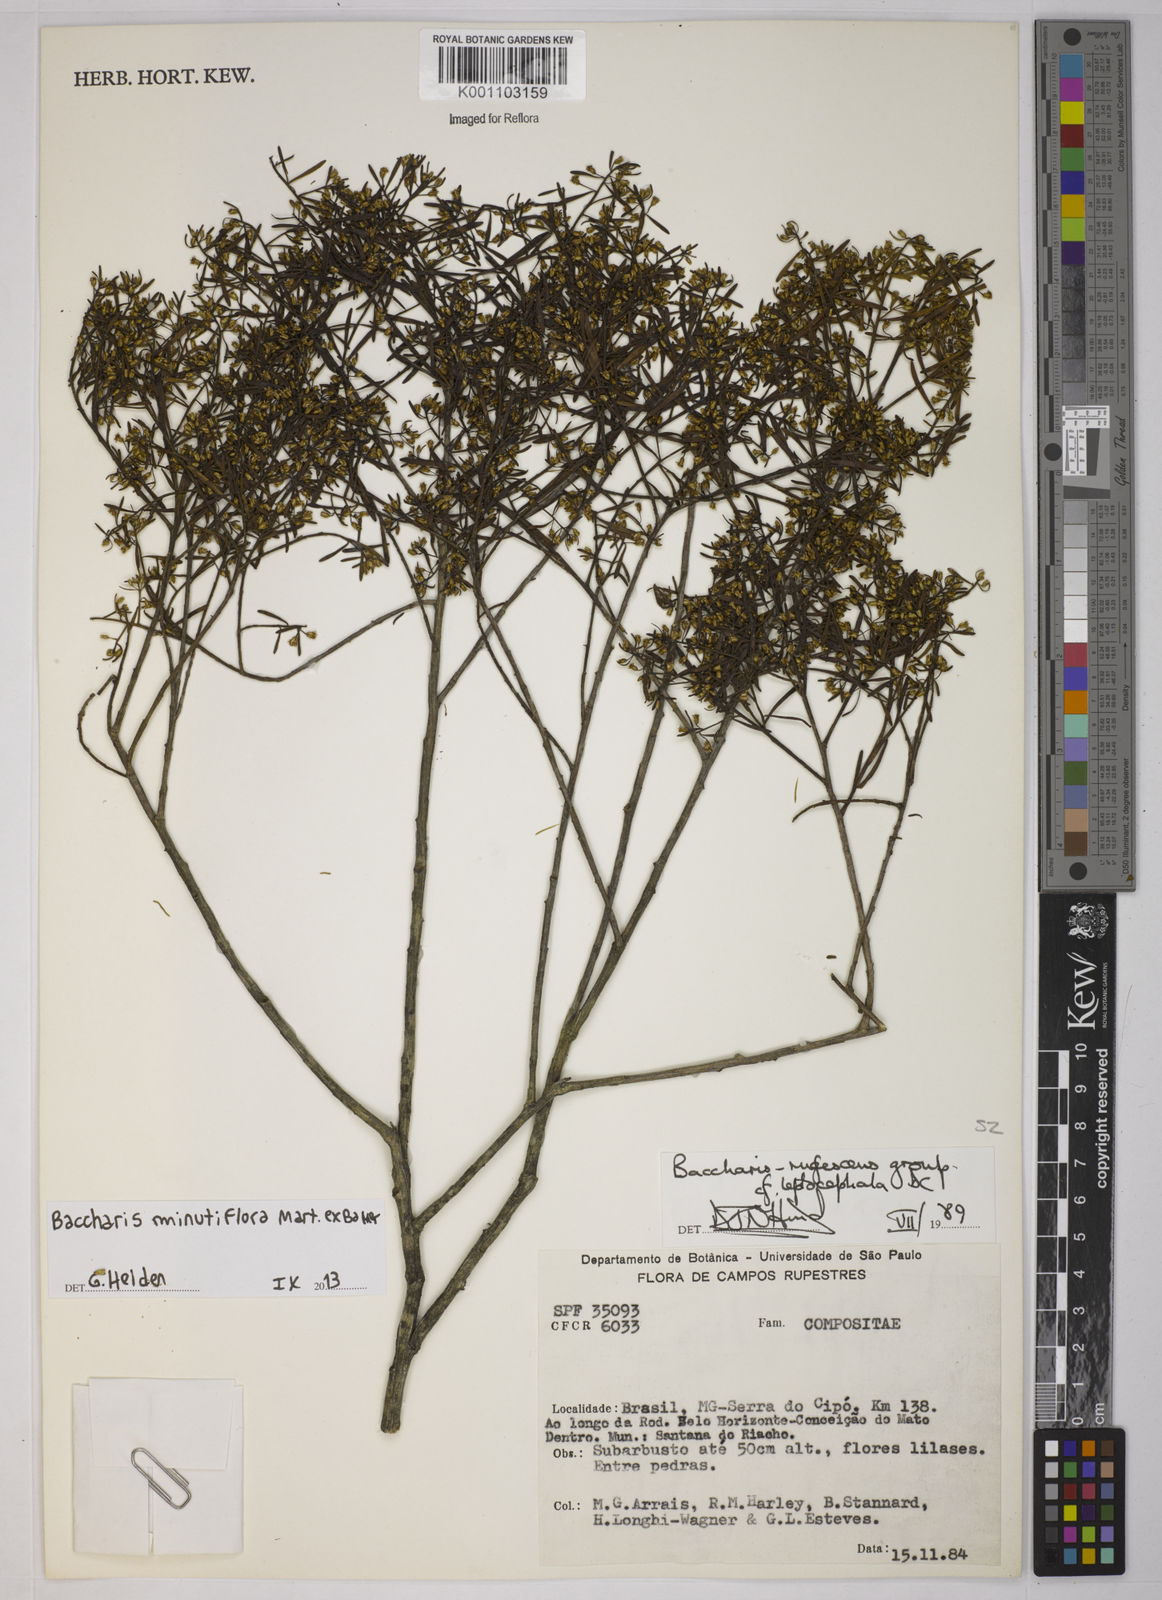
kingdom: Plantae
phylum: Tracheophyta
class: Magnoliopsida
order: Asterales
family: Asteraceae
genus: Baccharis
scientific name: Baccharis minutiflora
